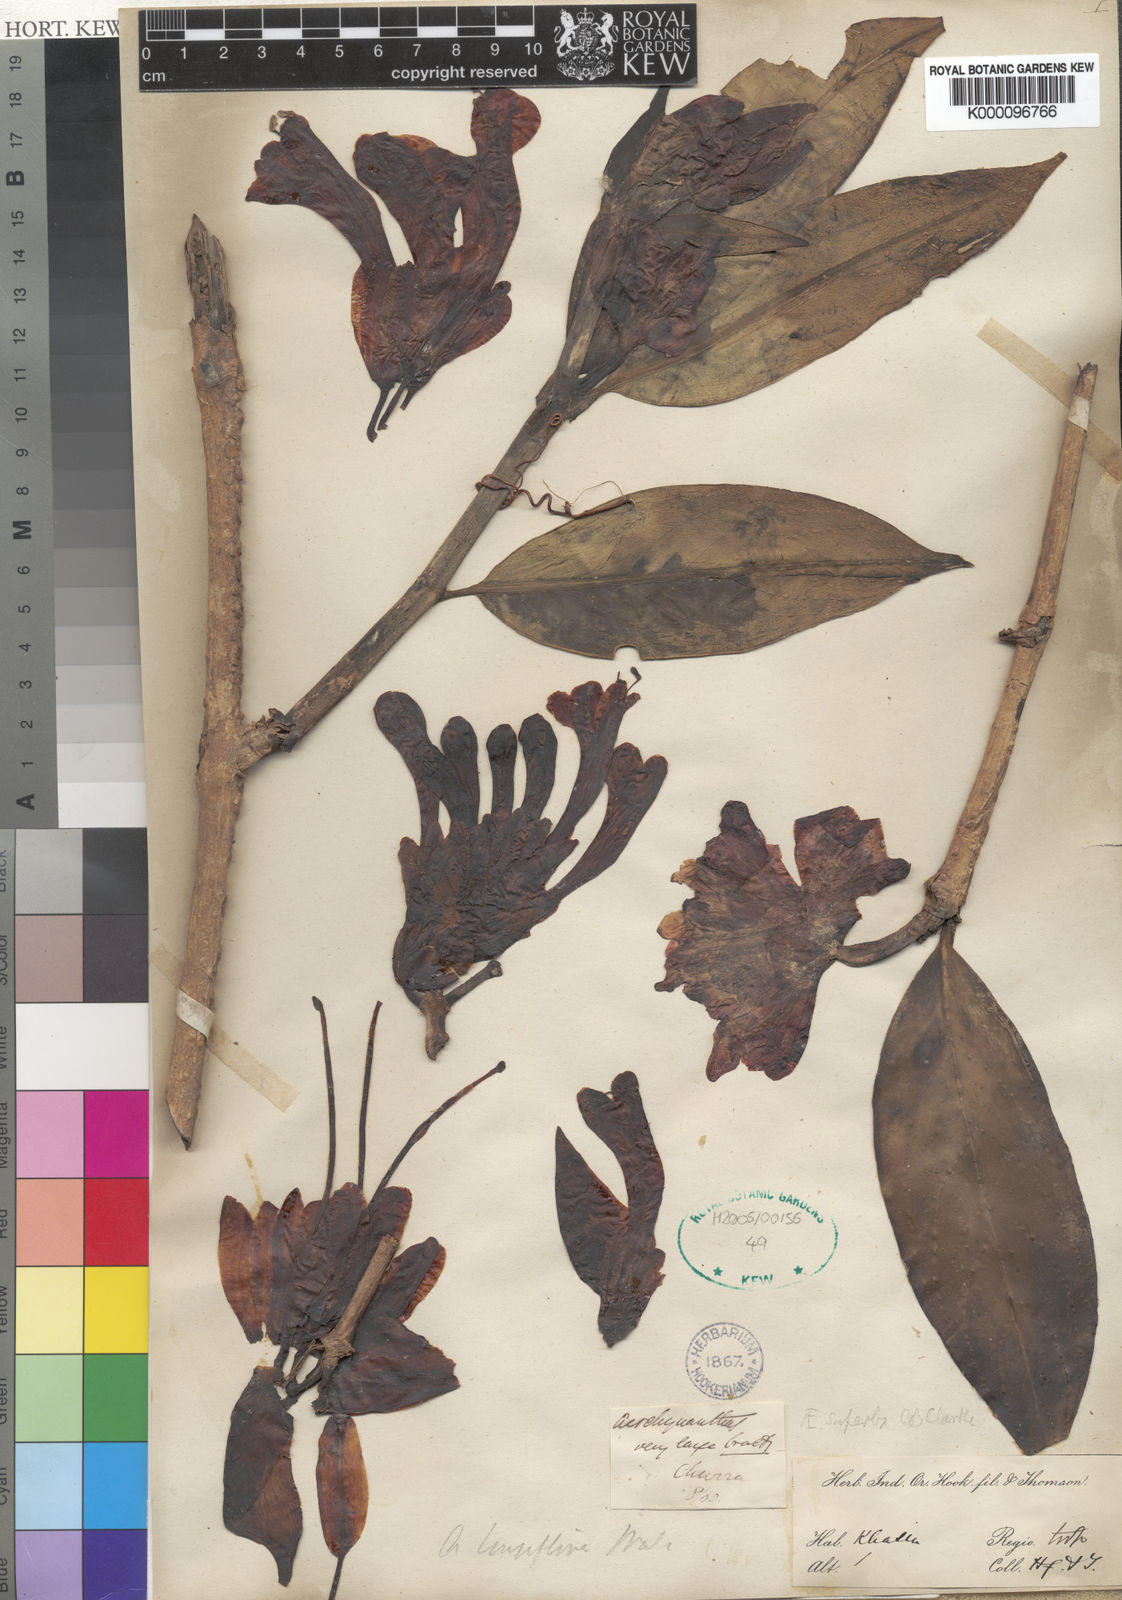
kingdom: Plantae
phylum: Tracheophyta
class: Magnoliopsida
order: Lamiales
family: Gesneriaceae
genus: Aeschynanthus
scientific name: Aeschynanthus superbus
